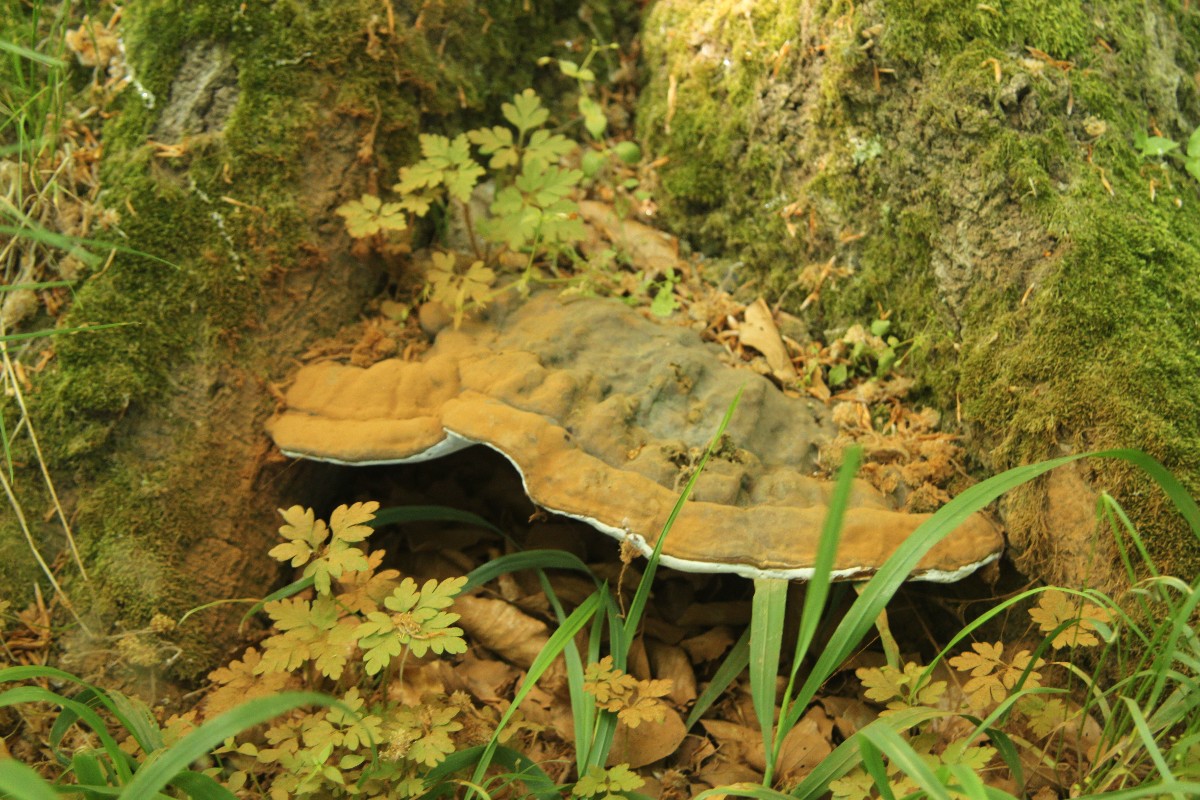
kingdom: Fungi
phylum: Basidiomycota
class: Agaricomycetes
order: Polyporales
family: Polyporaceae
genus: Ganoderma
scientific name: Ganoderma pfeifferi
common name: kobberrød lakporesvamp
